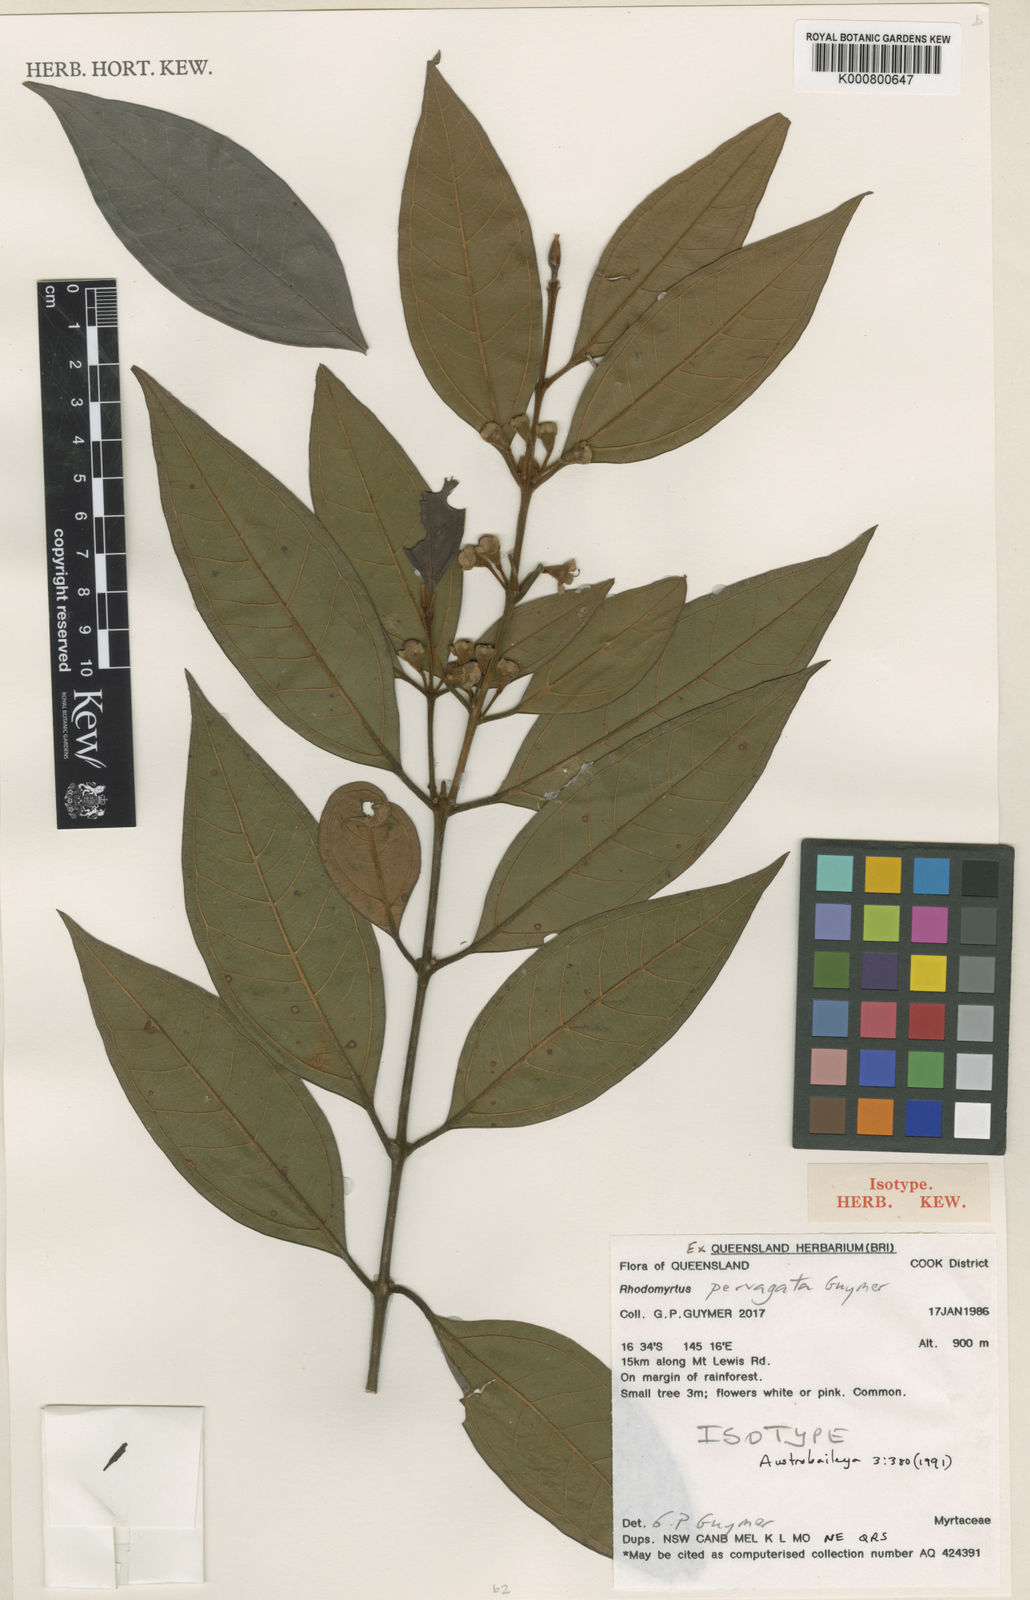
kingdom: Plantae
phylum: Tracheophyta
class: Magnoliopsida
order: Myrtales
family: Myrtaceae
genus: Rhodomyrtus
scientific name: Rhodomyrtus pervagata
